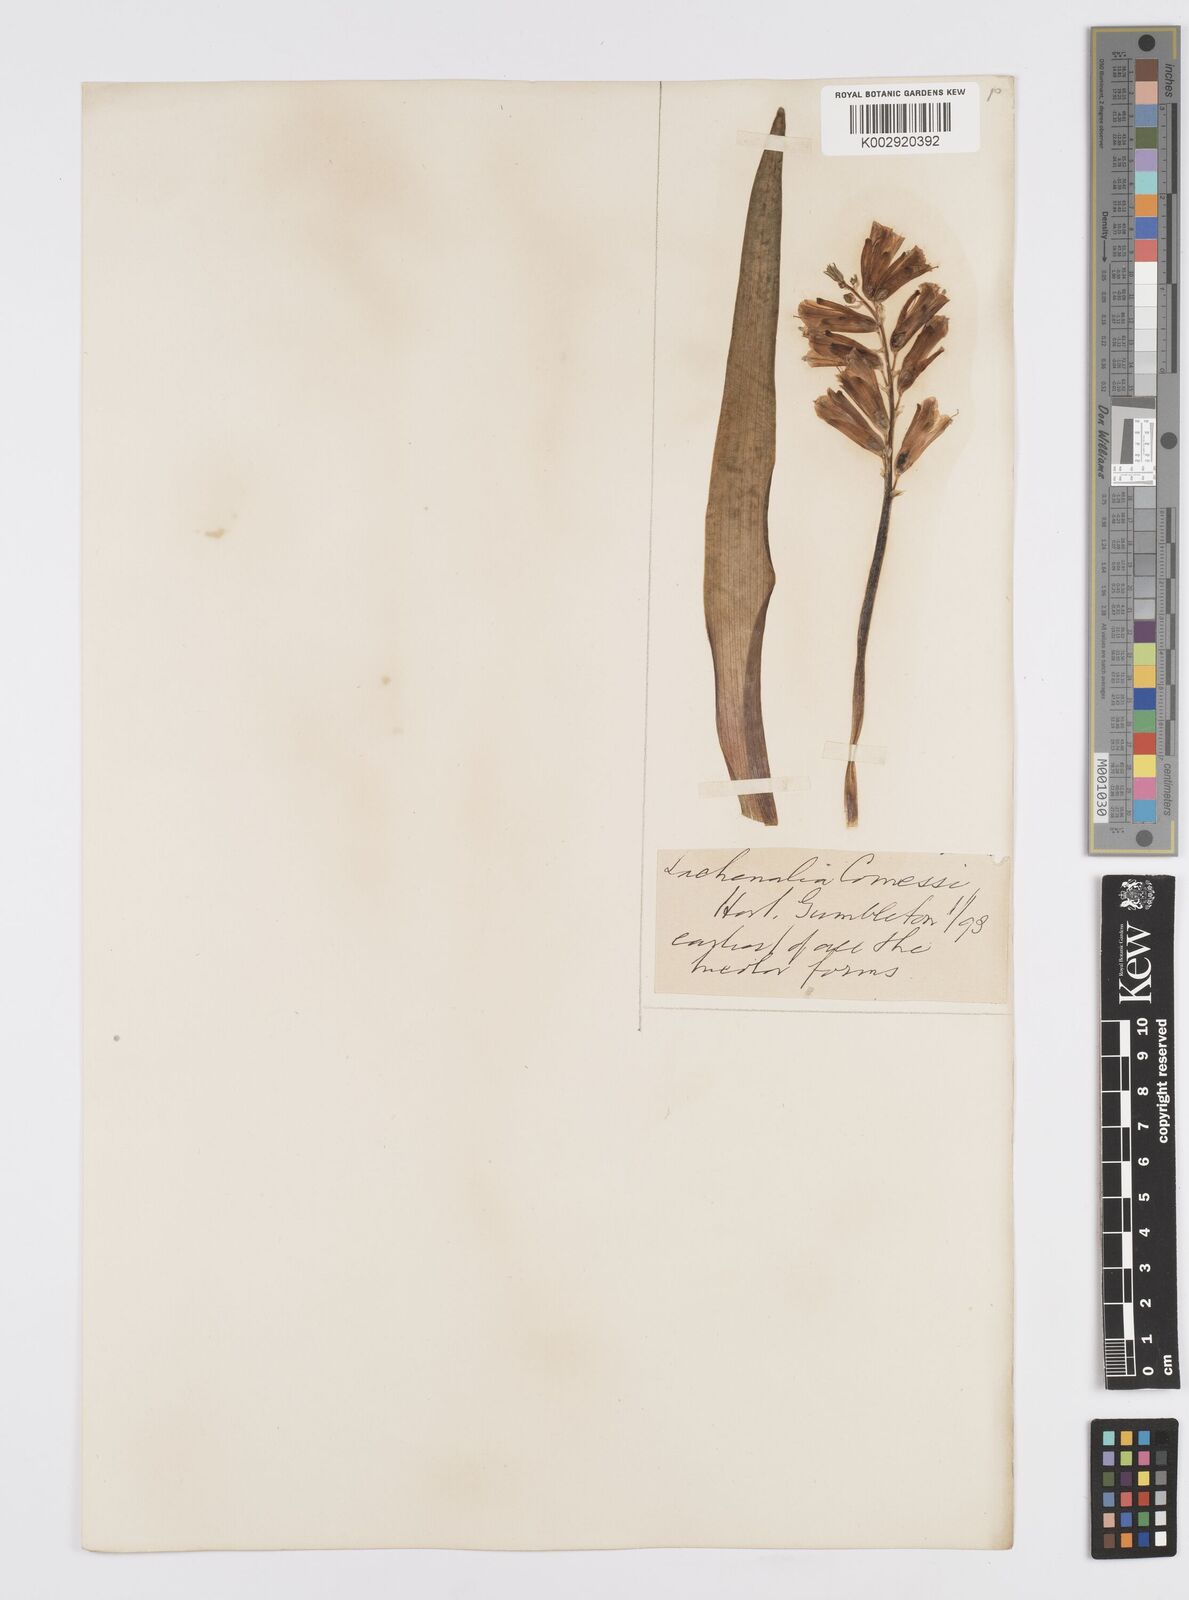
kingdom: Plantae
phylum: Tracheophyta
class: Liliopsida
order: Asparagales
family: Asparagaceae
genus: Lachenalia
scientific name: Lachenalia
